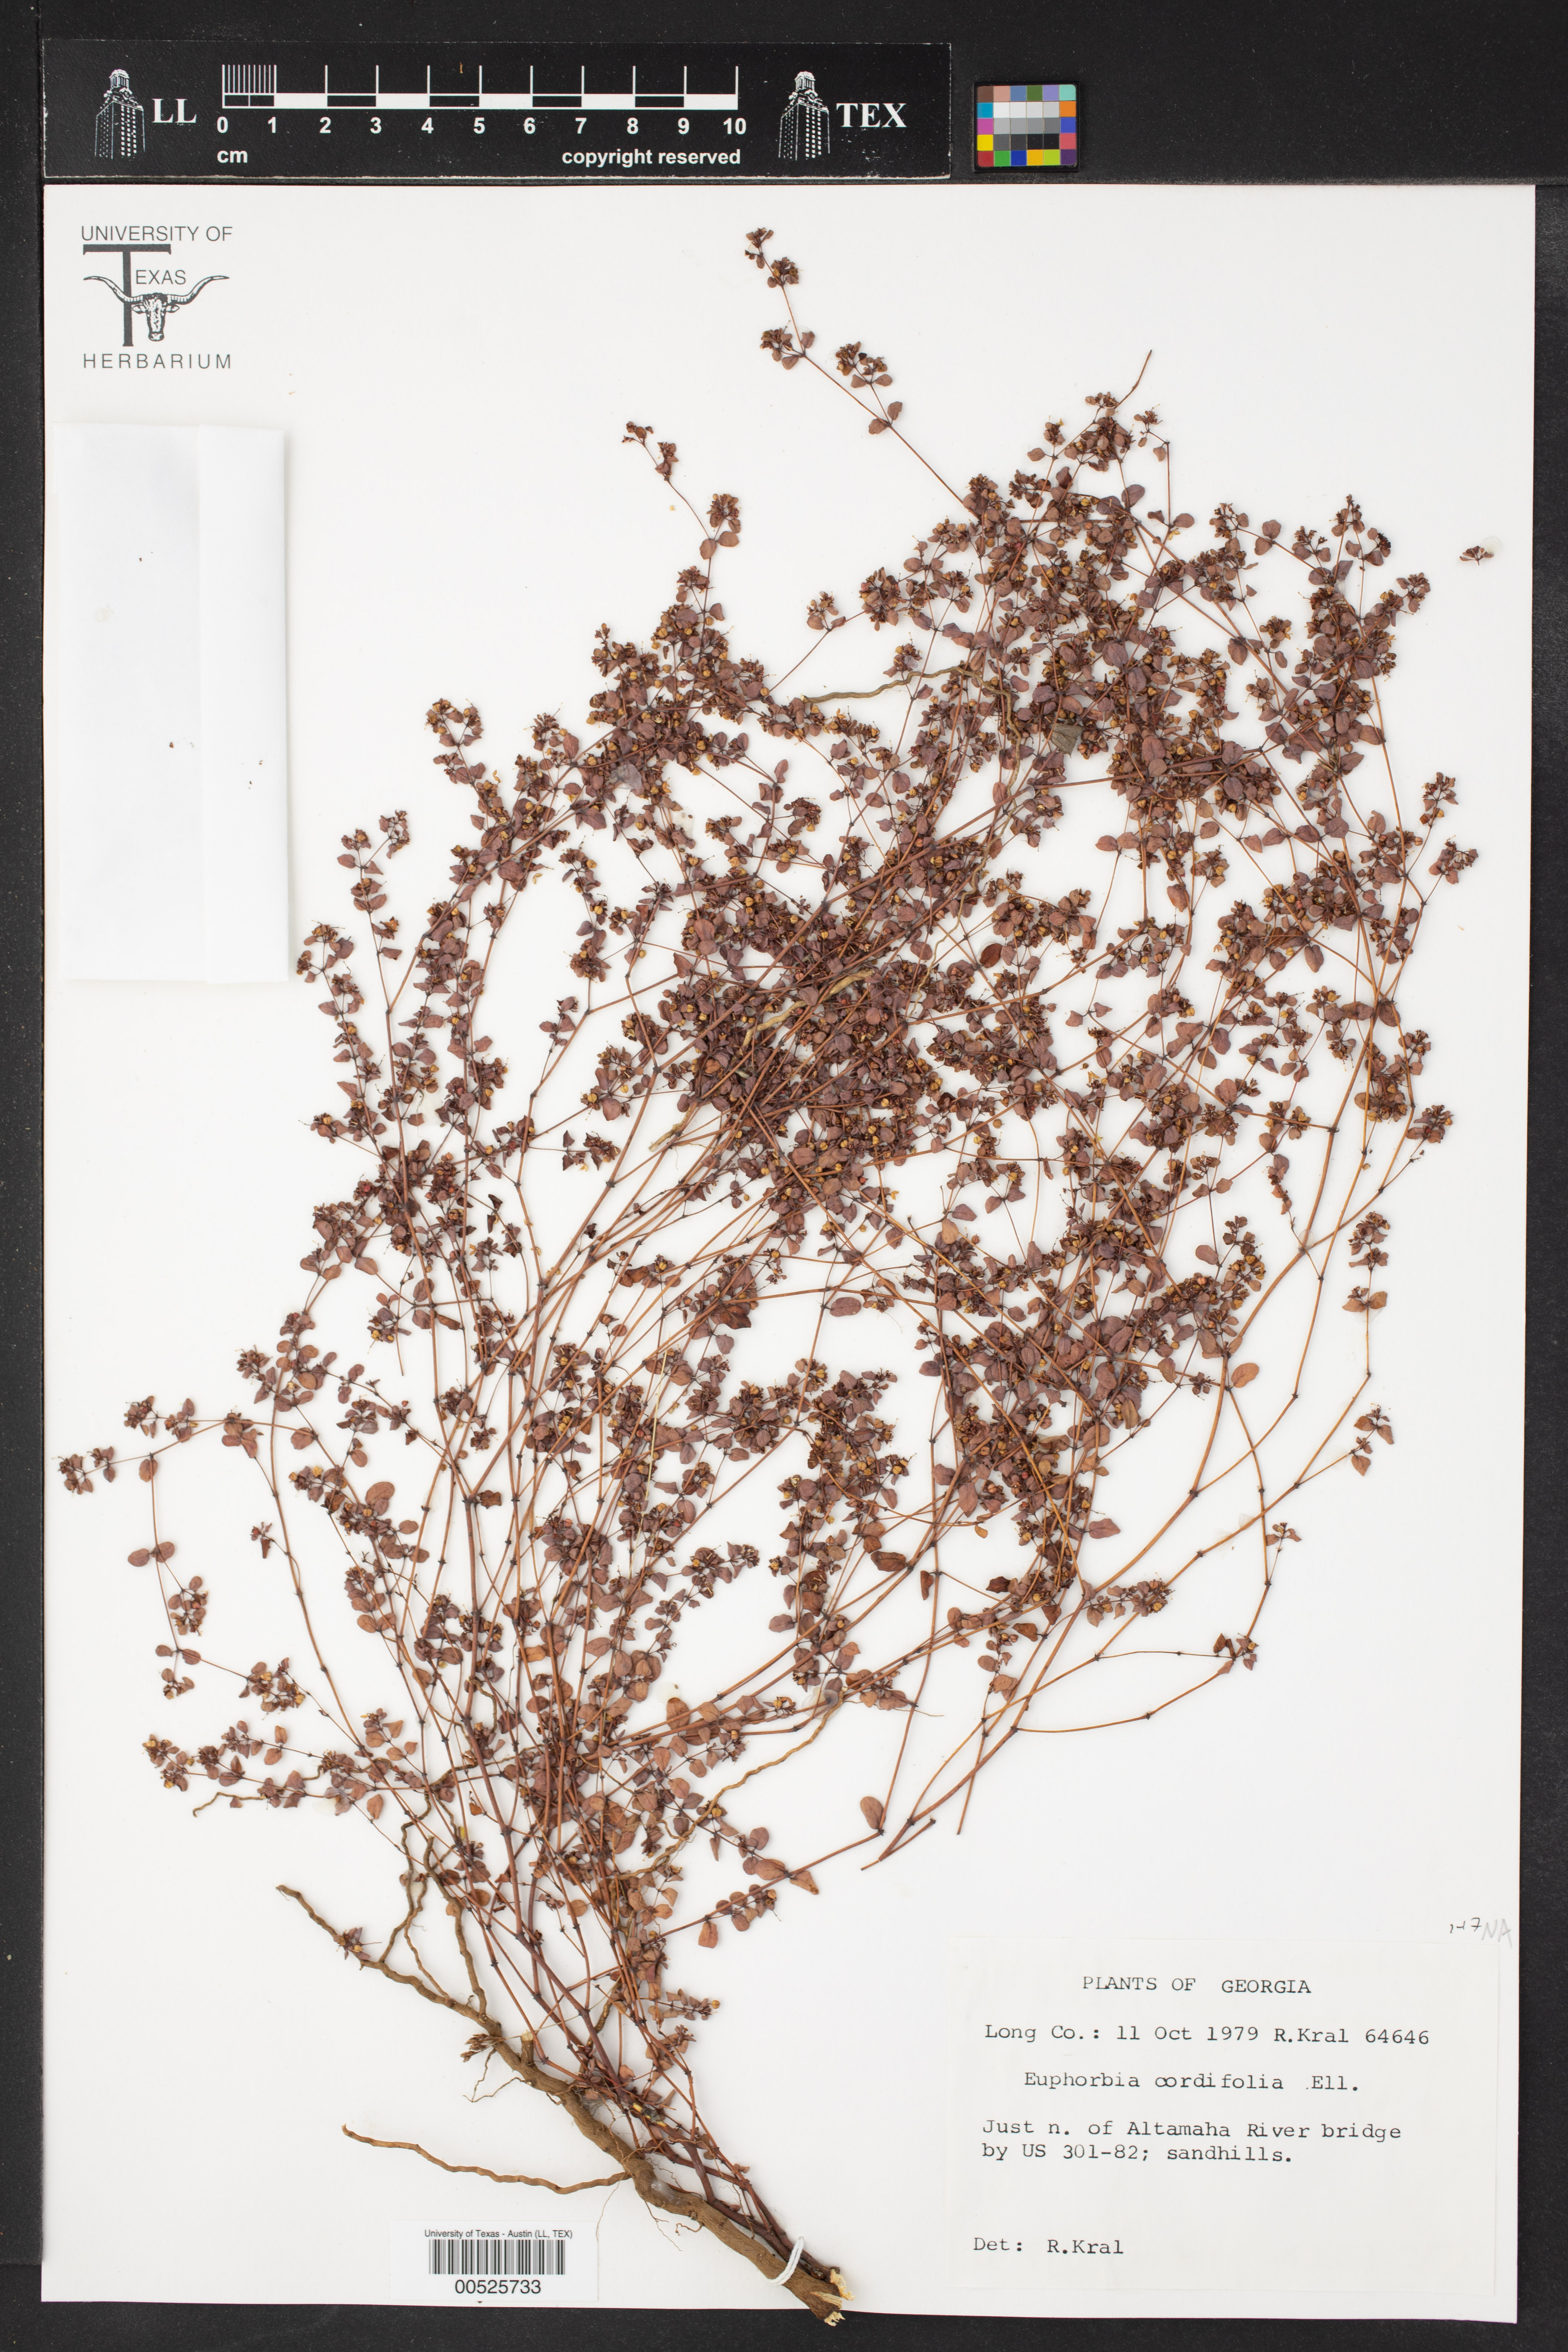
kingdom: Plantae
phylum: Tracheophyta
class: Magnoliopsida
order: Malpighiales
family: Euphorbiaceae
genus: Euphorbia
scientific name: Euphorbia cordifolia
